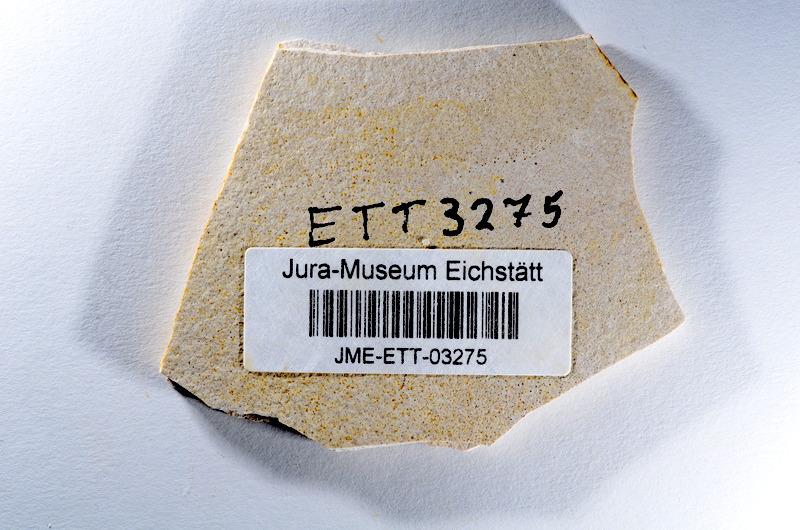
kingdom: Animalia
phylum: Chordata
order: Salmoniformes
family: Orthogonikleithridae
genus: Orthogonikleithrus
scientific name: Orthogonikleithrus hoelli
